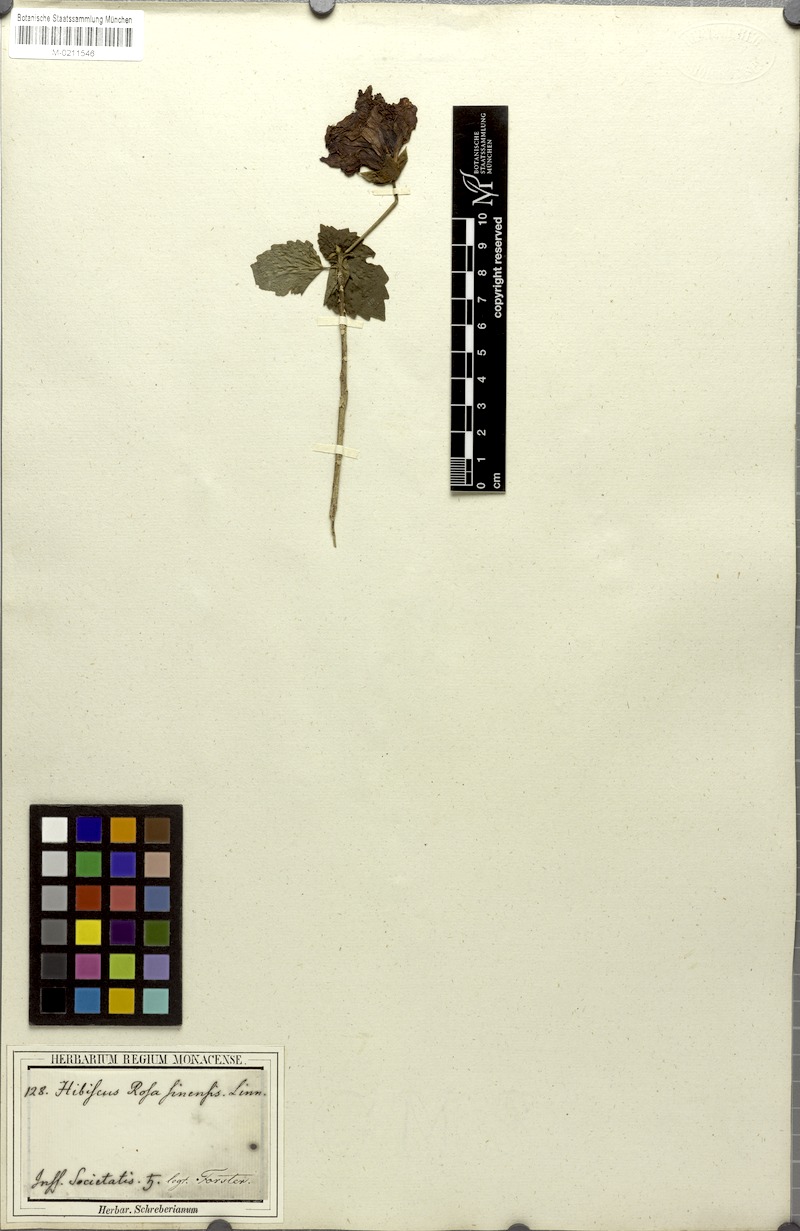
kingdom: Plantae
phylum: Tracheophyta
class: Magnoliopsida
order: Malvales
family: Malvaceae
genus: Hibiscus
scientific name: Hibiscus rosa-sinensis
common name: Hibiscus
